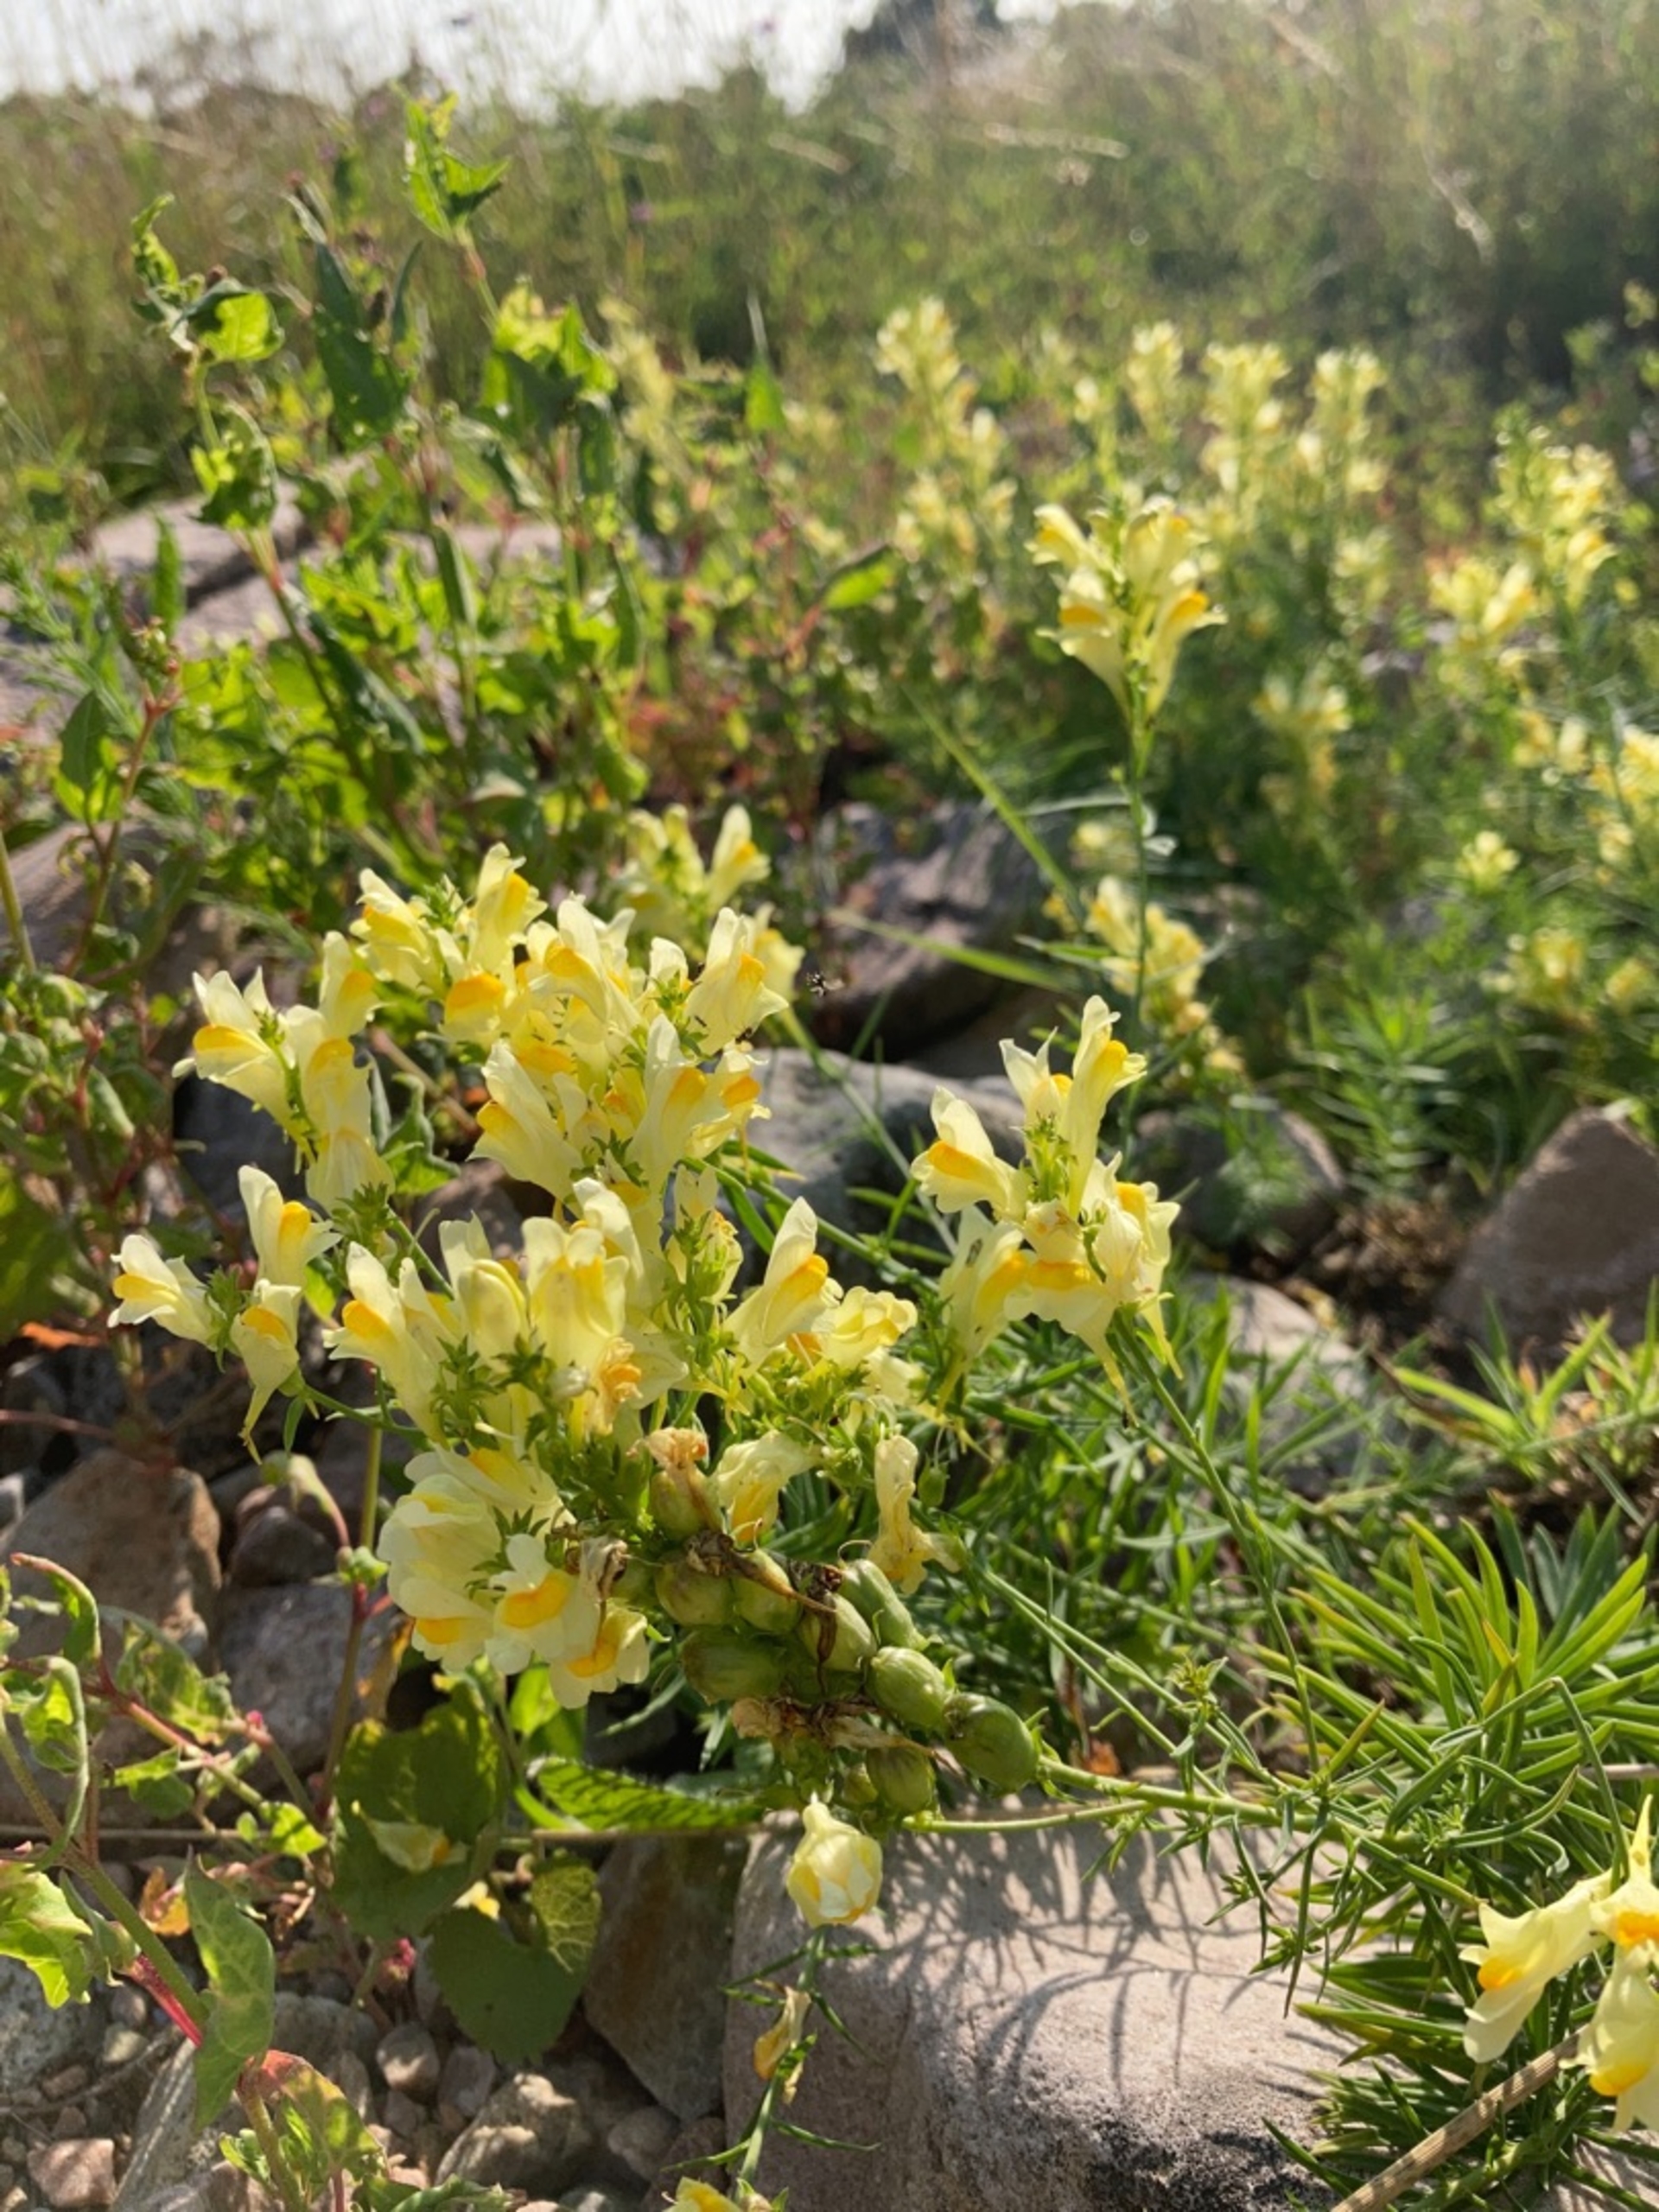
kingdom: Plantae
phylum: Tracheophyta
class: Magnoliopsida
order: Lamiales
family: Plantaginaceae
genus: Linaria
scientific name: Linaria vulgaris
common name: Almindelig torskemund
